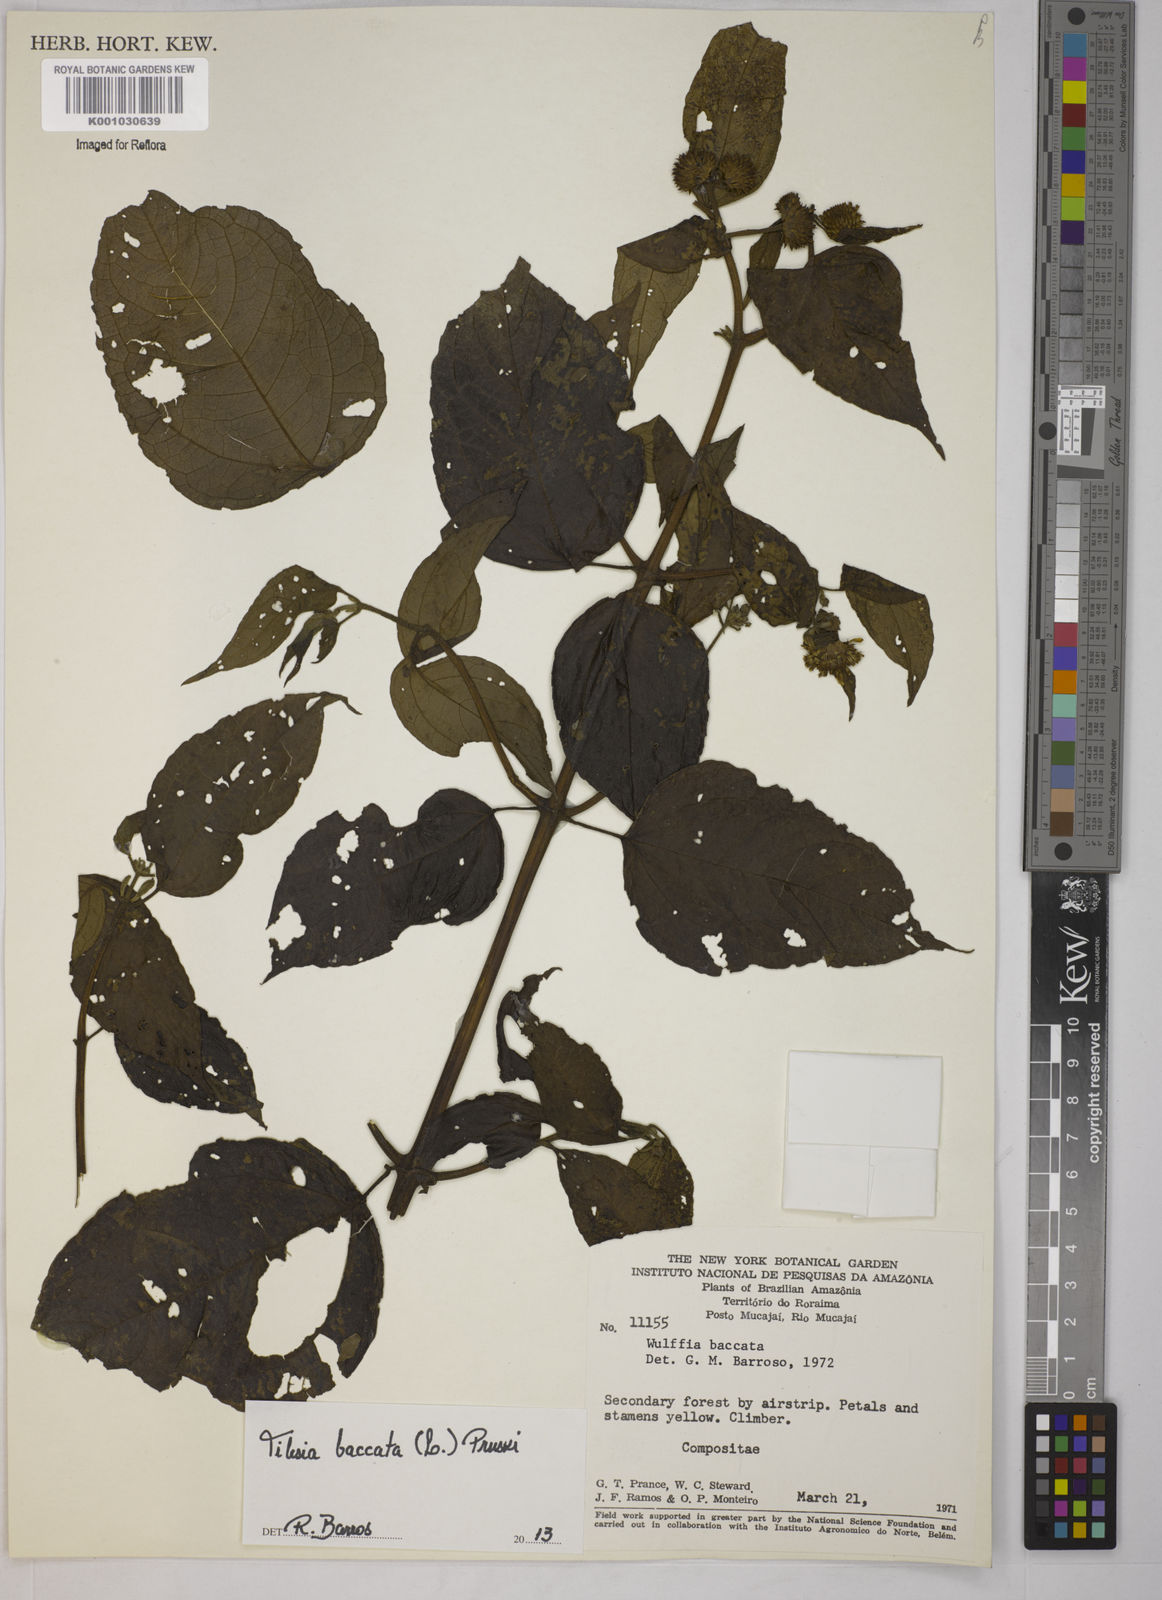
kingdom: Plantae
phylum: Tracheophyta
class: Magnoliopsida
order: Asterales
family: Asteraceae
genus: Tilesia
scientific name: Tilesia baccata
